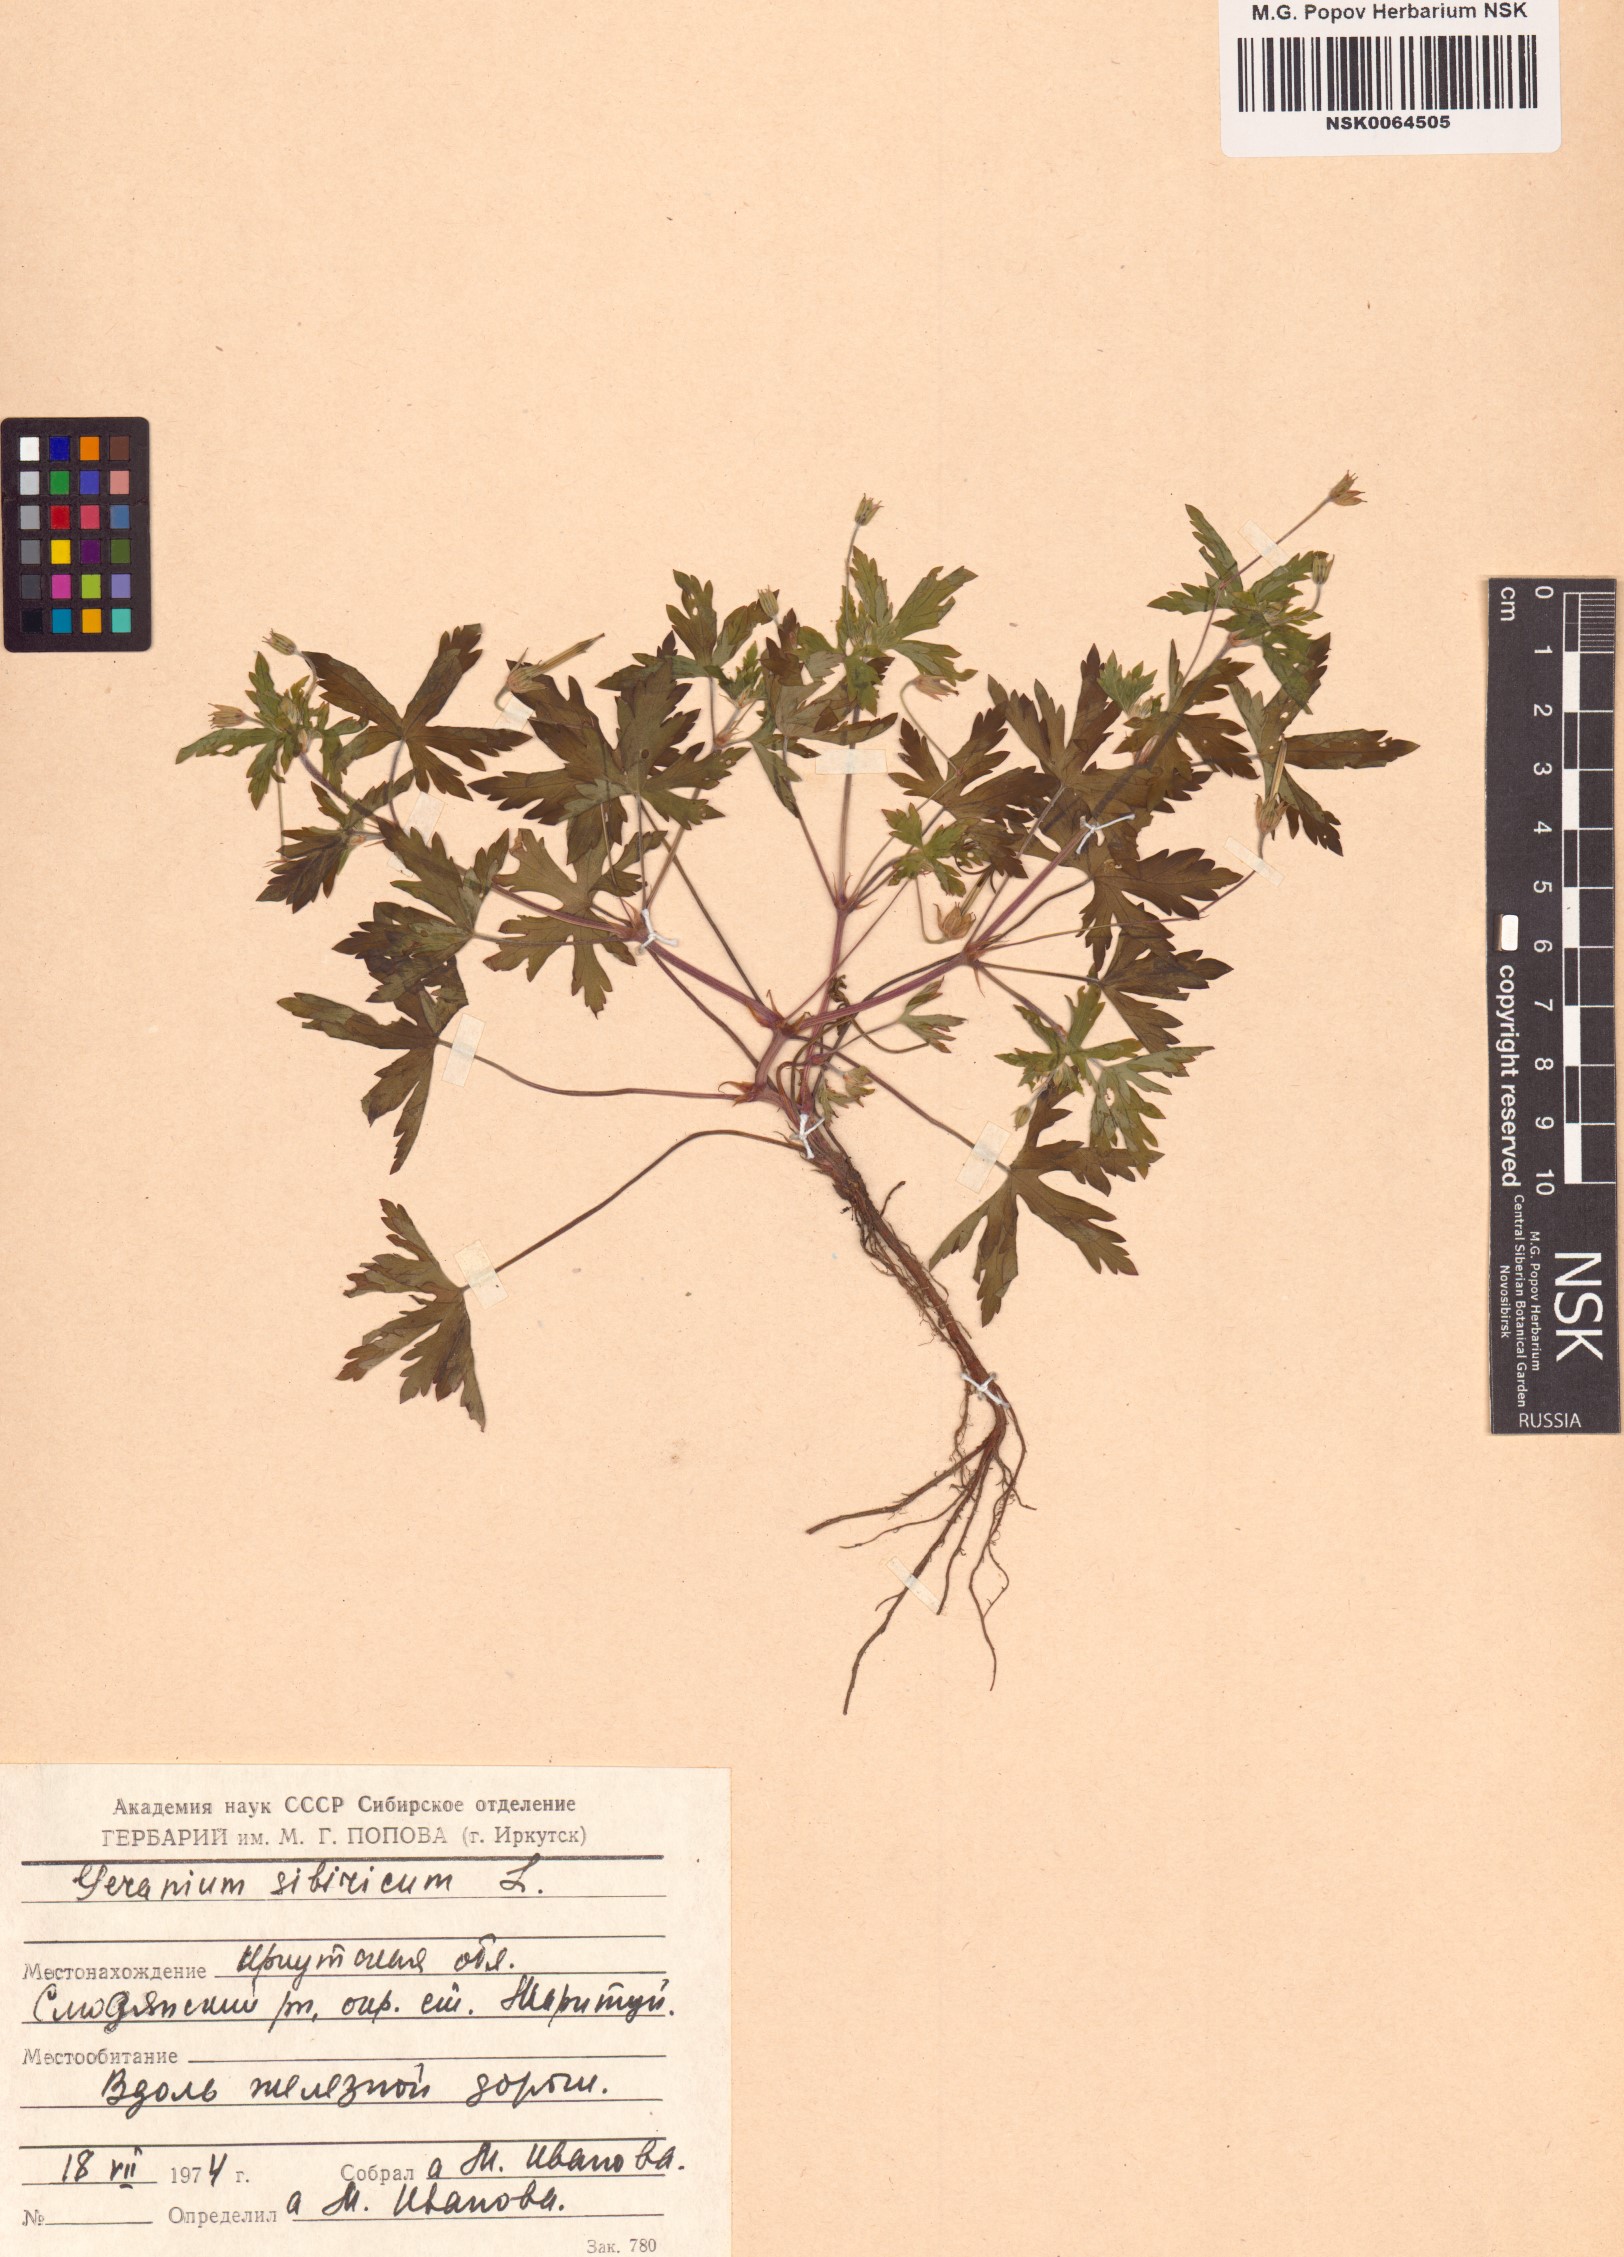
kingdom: Plantae
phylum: Tracheophyta
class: Magnoliopsida
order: Geraniales
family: Geraniaceae
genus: Geranium
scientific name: Geranium sibiricum
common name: Siberian crane's-bill
